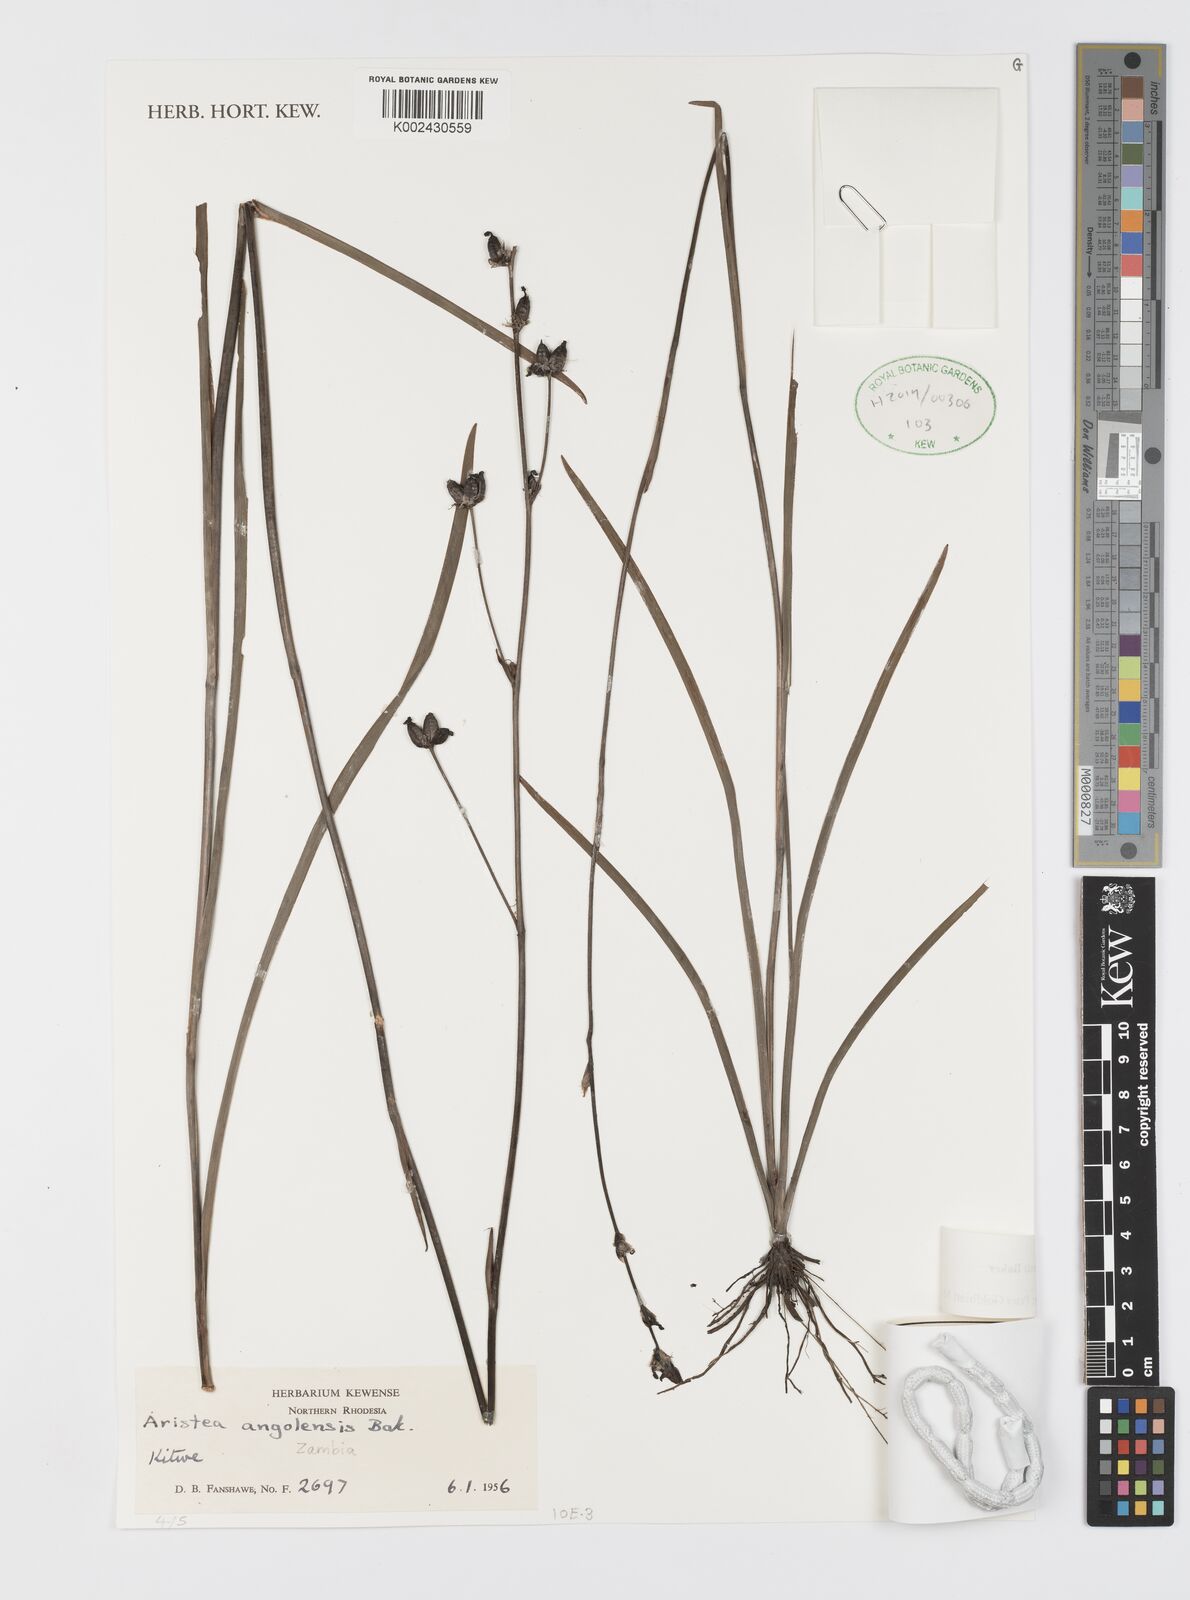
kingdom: Plantae
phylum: Tracheophyta
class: Liliopsida
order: Asparagales
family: Iridaceae
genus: Aristea
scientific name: Aristea angolensis
